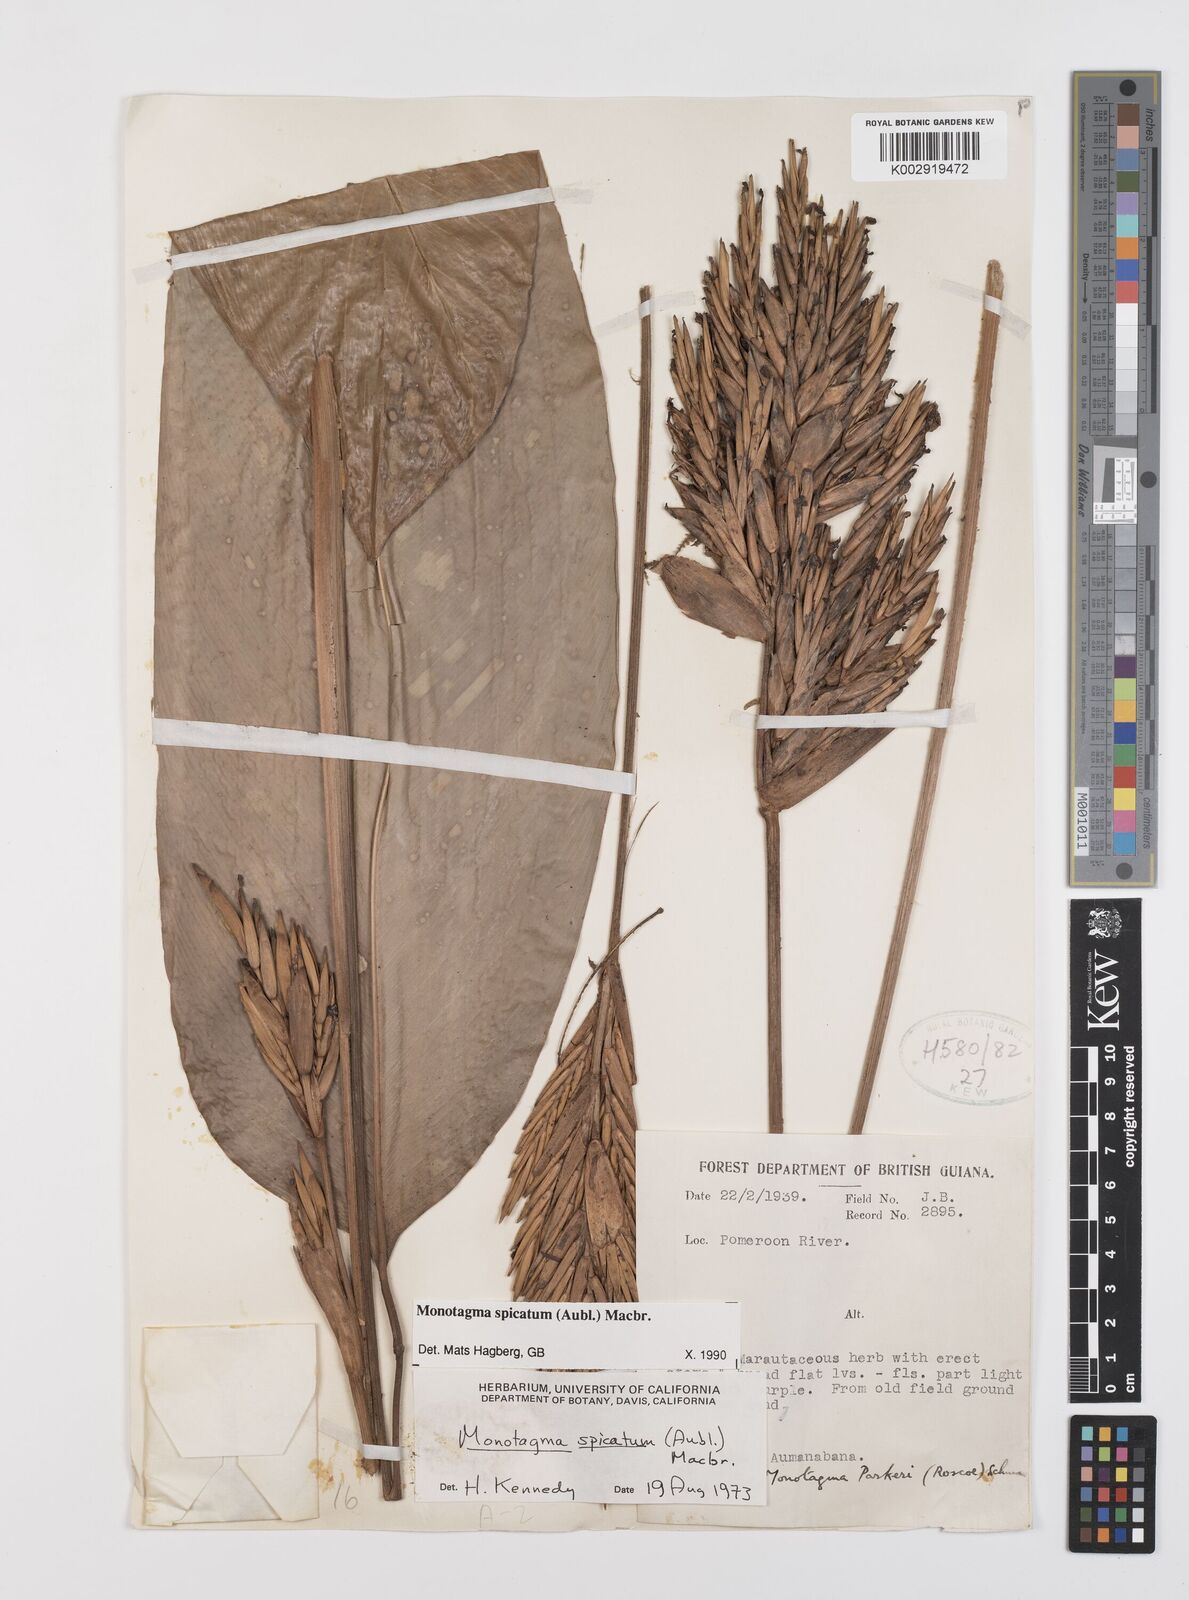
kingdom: Plantae
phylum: Tracheophyta
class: Liliopsida
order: Zingiberales
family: Marantaceae
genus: Monotagma
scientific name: Monotagma spicatum
